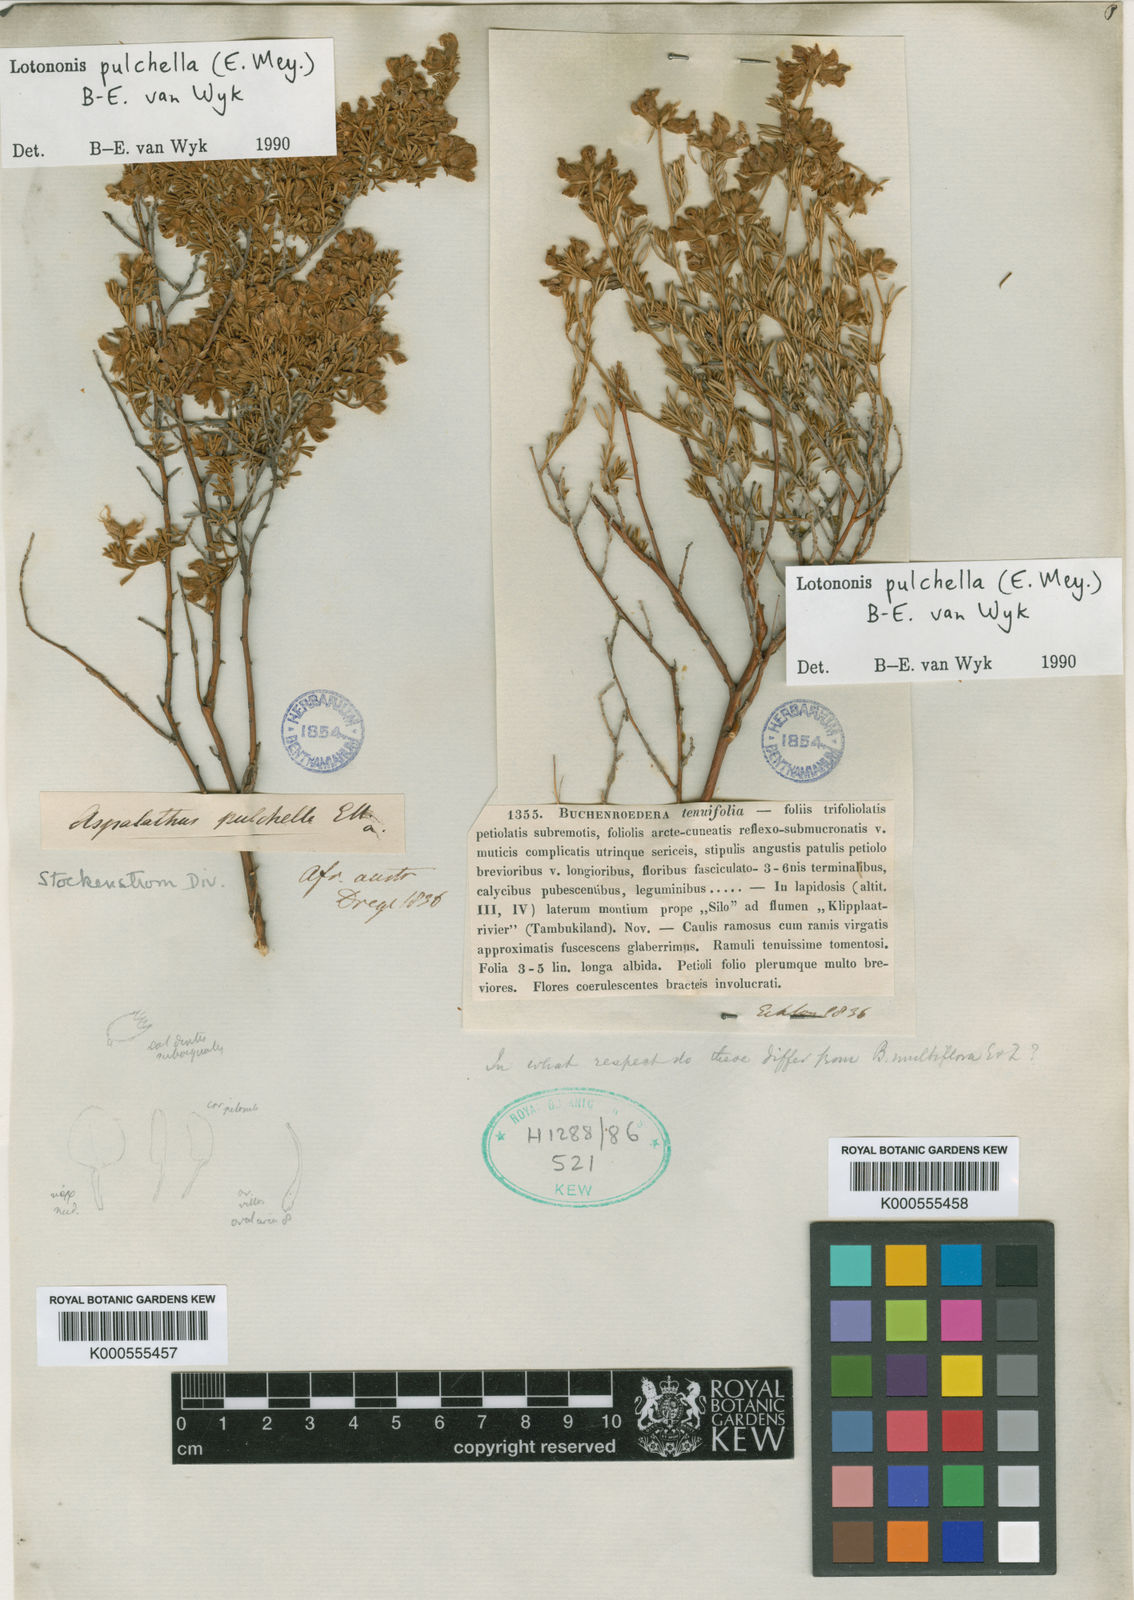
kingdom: Plantae
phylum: Tracheophyta
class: Magnoliopsida
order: Fabales
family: Fabaceae
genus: Lotononis
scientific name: Lotononis pulchella
